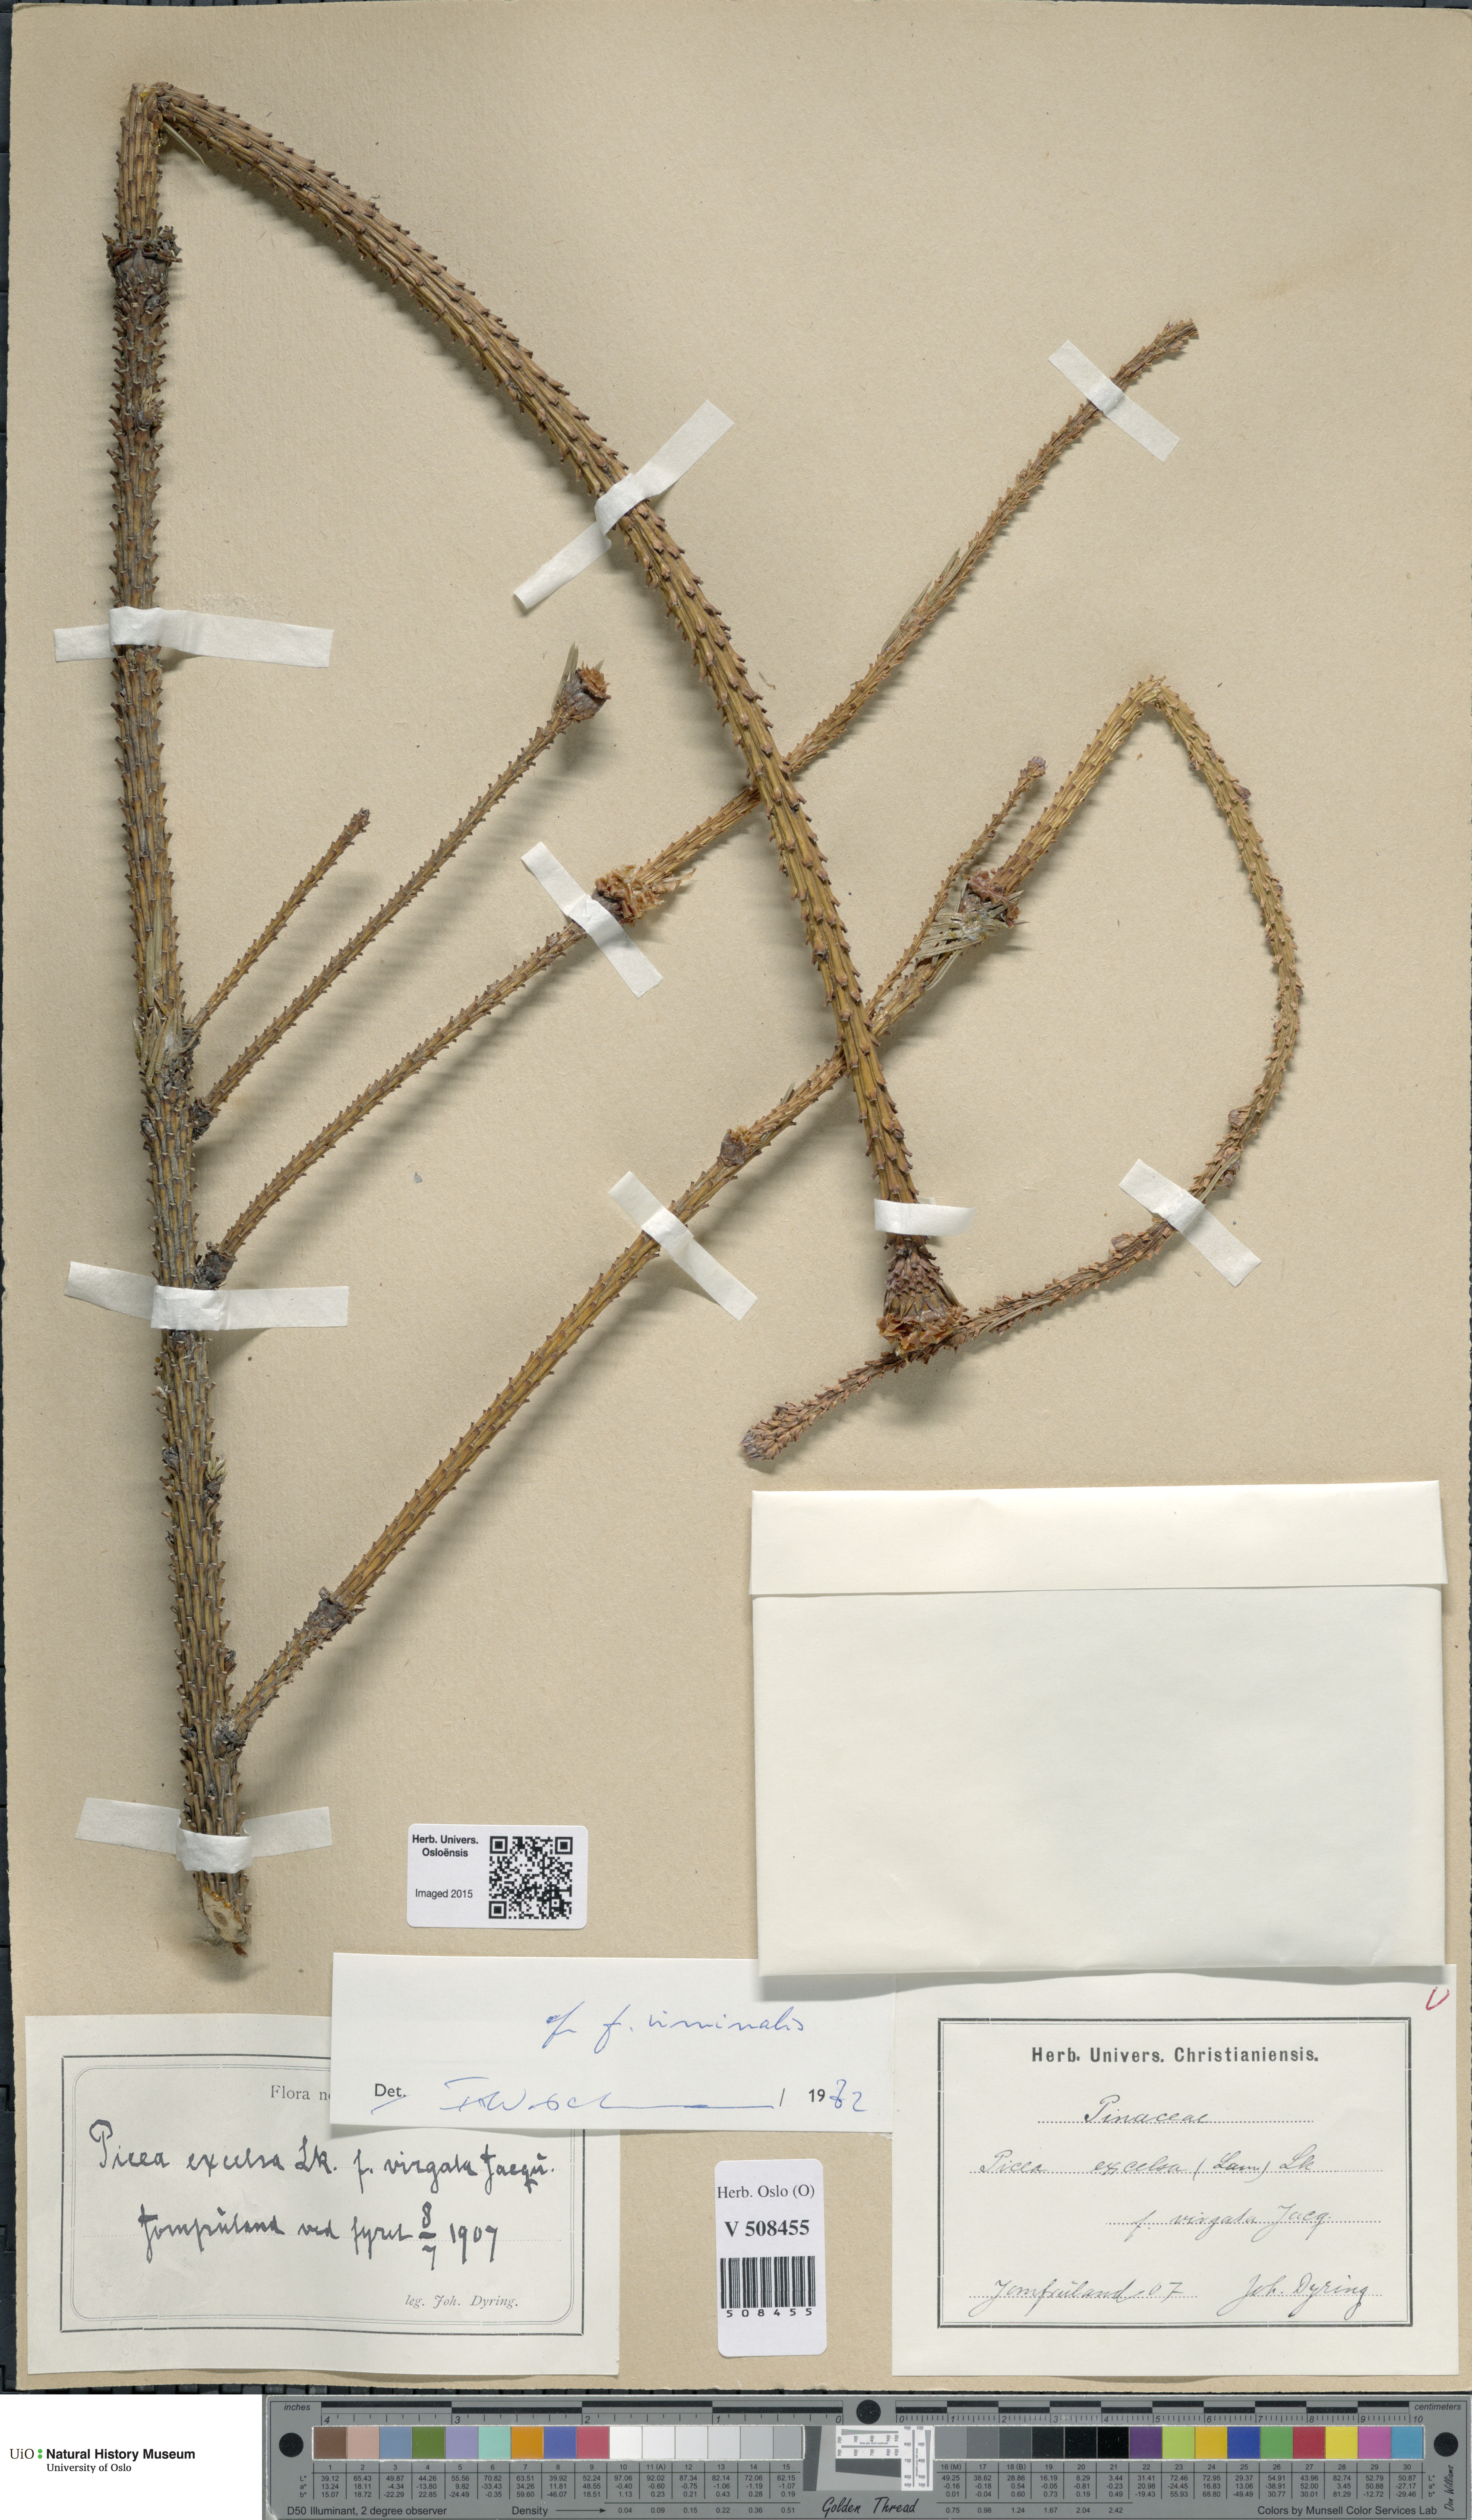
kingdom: Plantae
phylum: Tracheophyta
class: Pinopsida
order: Pinales
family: Pinaceae
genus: Picea
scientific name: Picea abies
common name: Norway spruce
